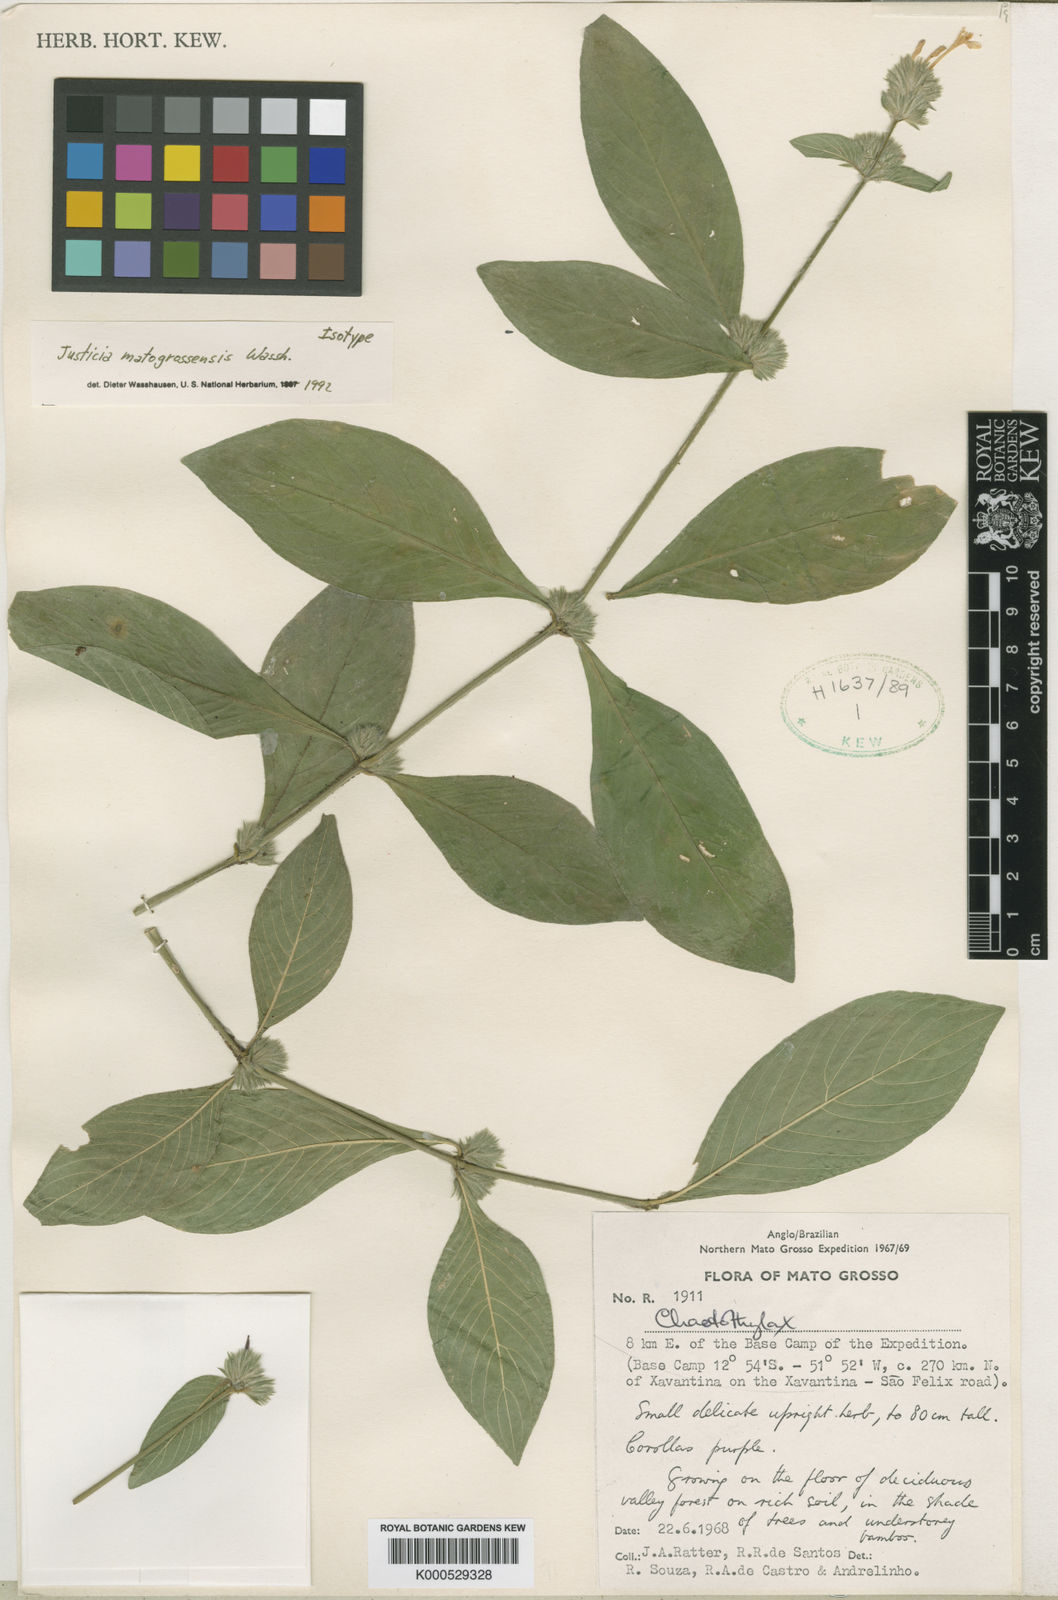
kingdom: Plantae
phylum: Tracheophyta
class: Magnoliopsida
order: Lamiales
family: Acanthaceae
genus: Justicia
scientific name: Justicia matogrossensis
